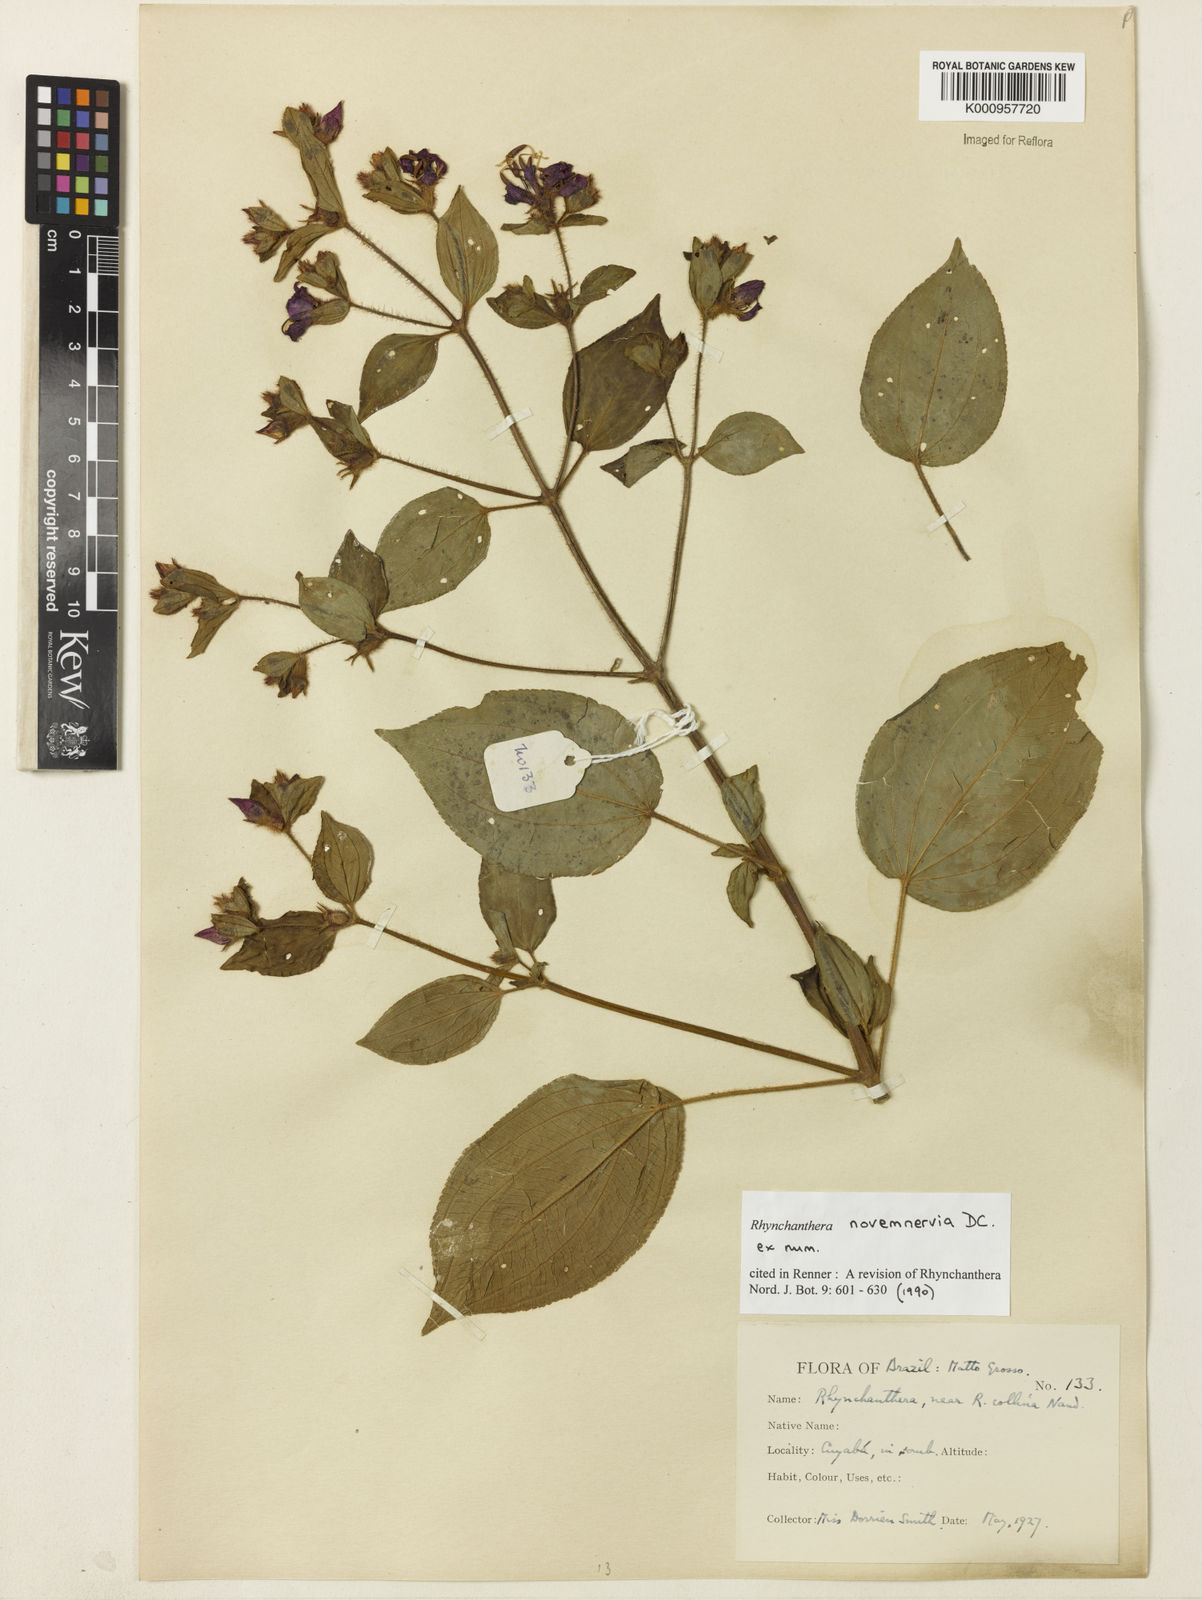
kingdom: Plantae
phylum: Tracheophyta
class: Magnoliopsida
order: Myrtales
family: Melastomataceae
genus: Rhynchanthera
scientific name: Rhynchanthera novemnervia
